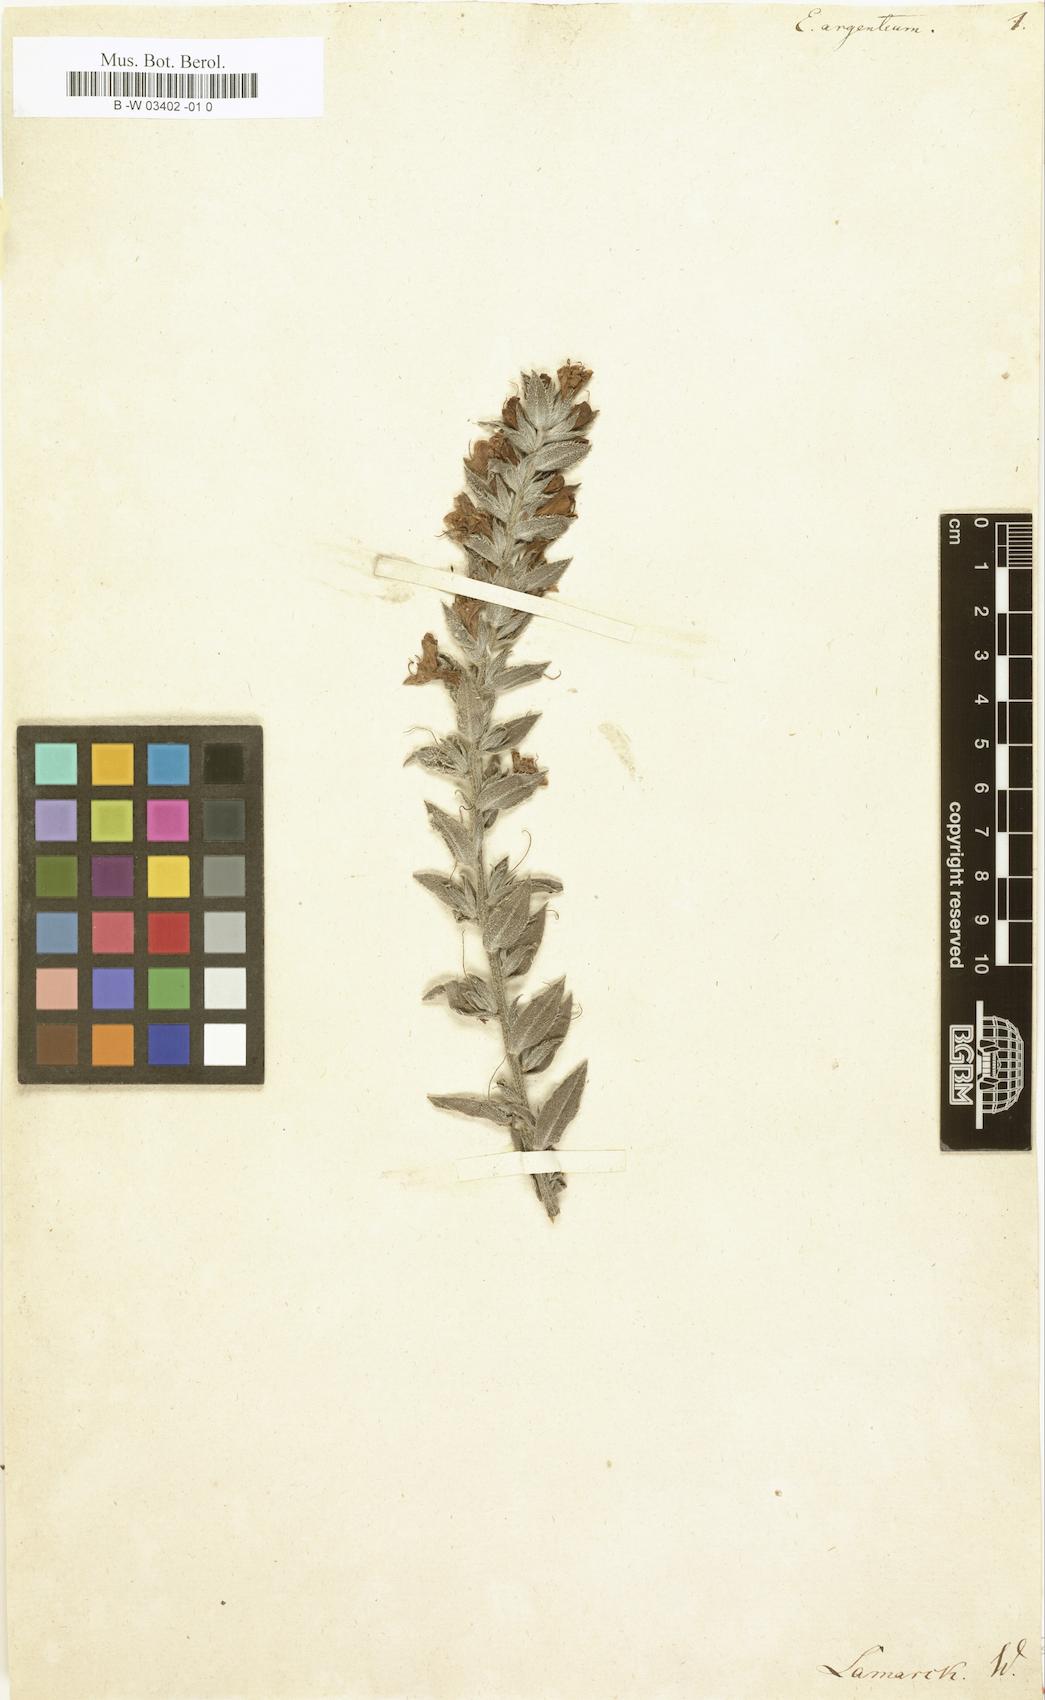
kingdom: Plantae
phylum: Tracheophyta
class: Magnoliopsida
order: Boraginales
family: Boraginaceae
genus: Lobostemon
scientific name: Lobostemon argenteus
